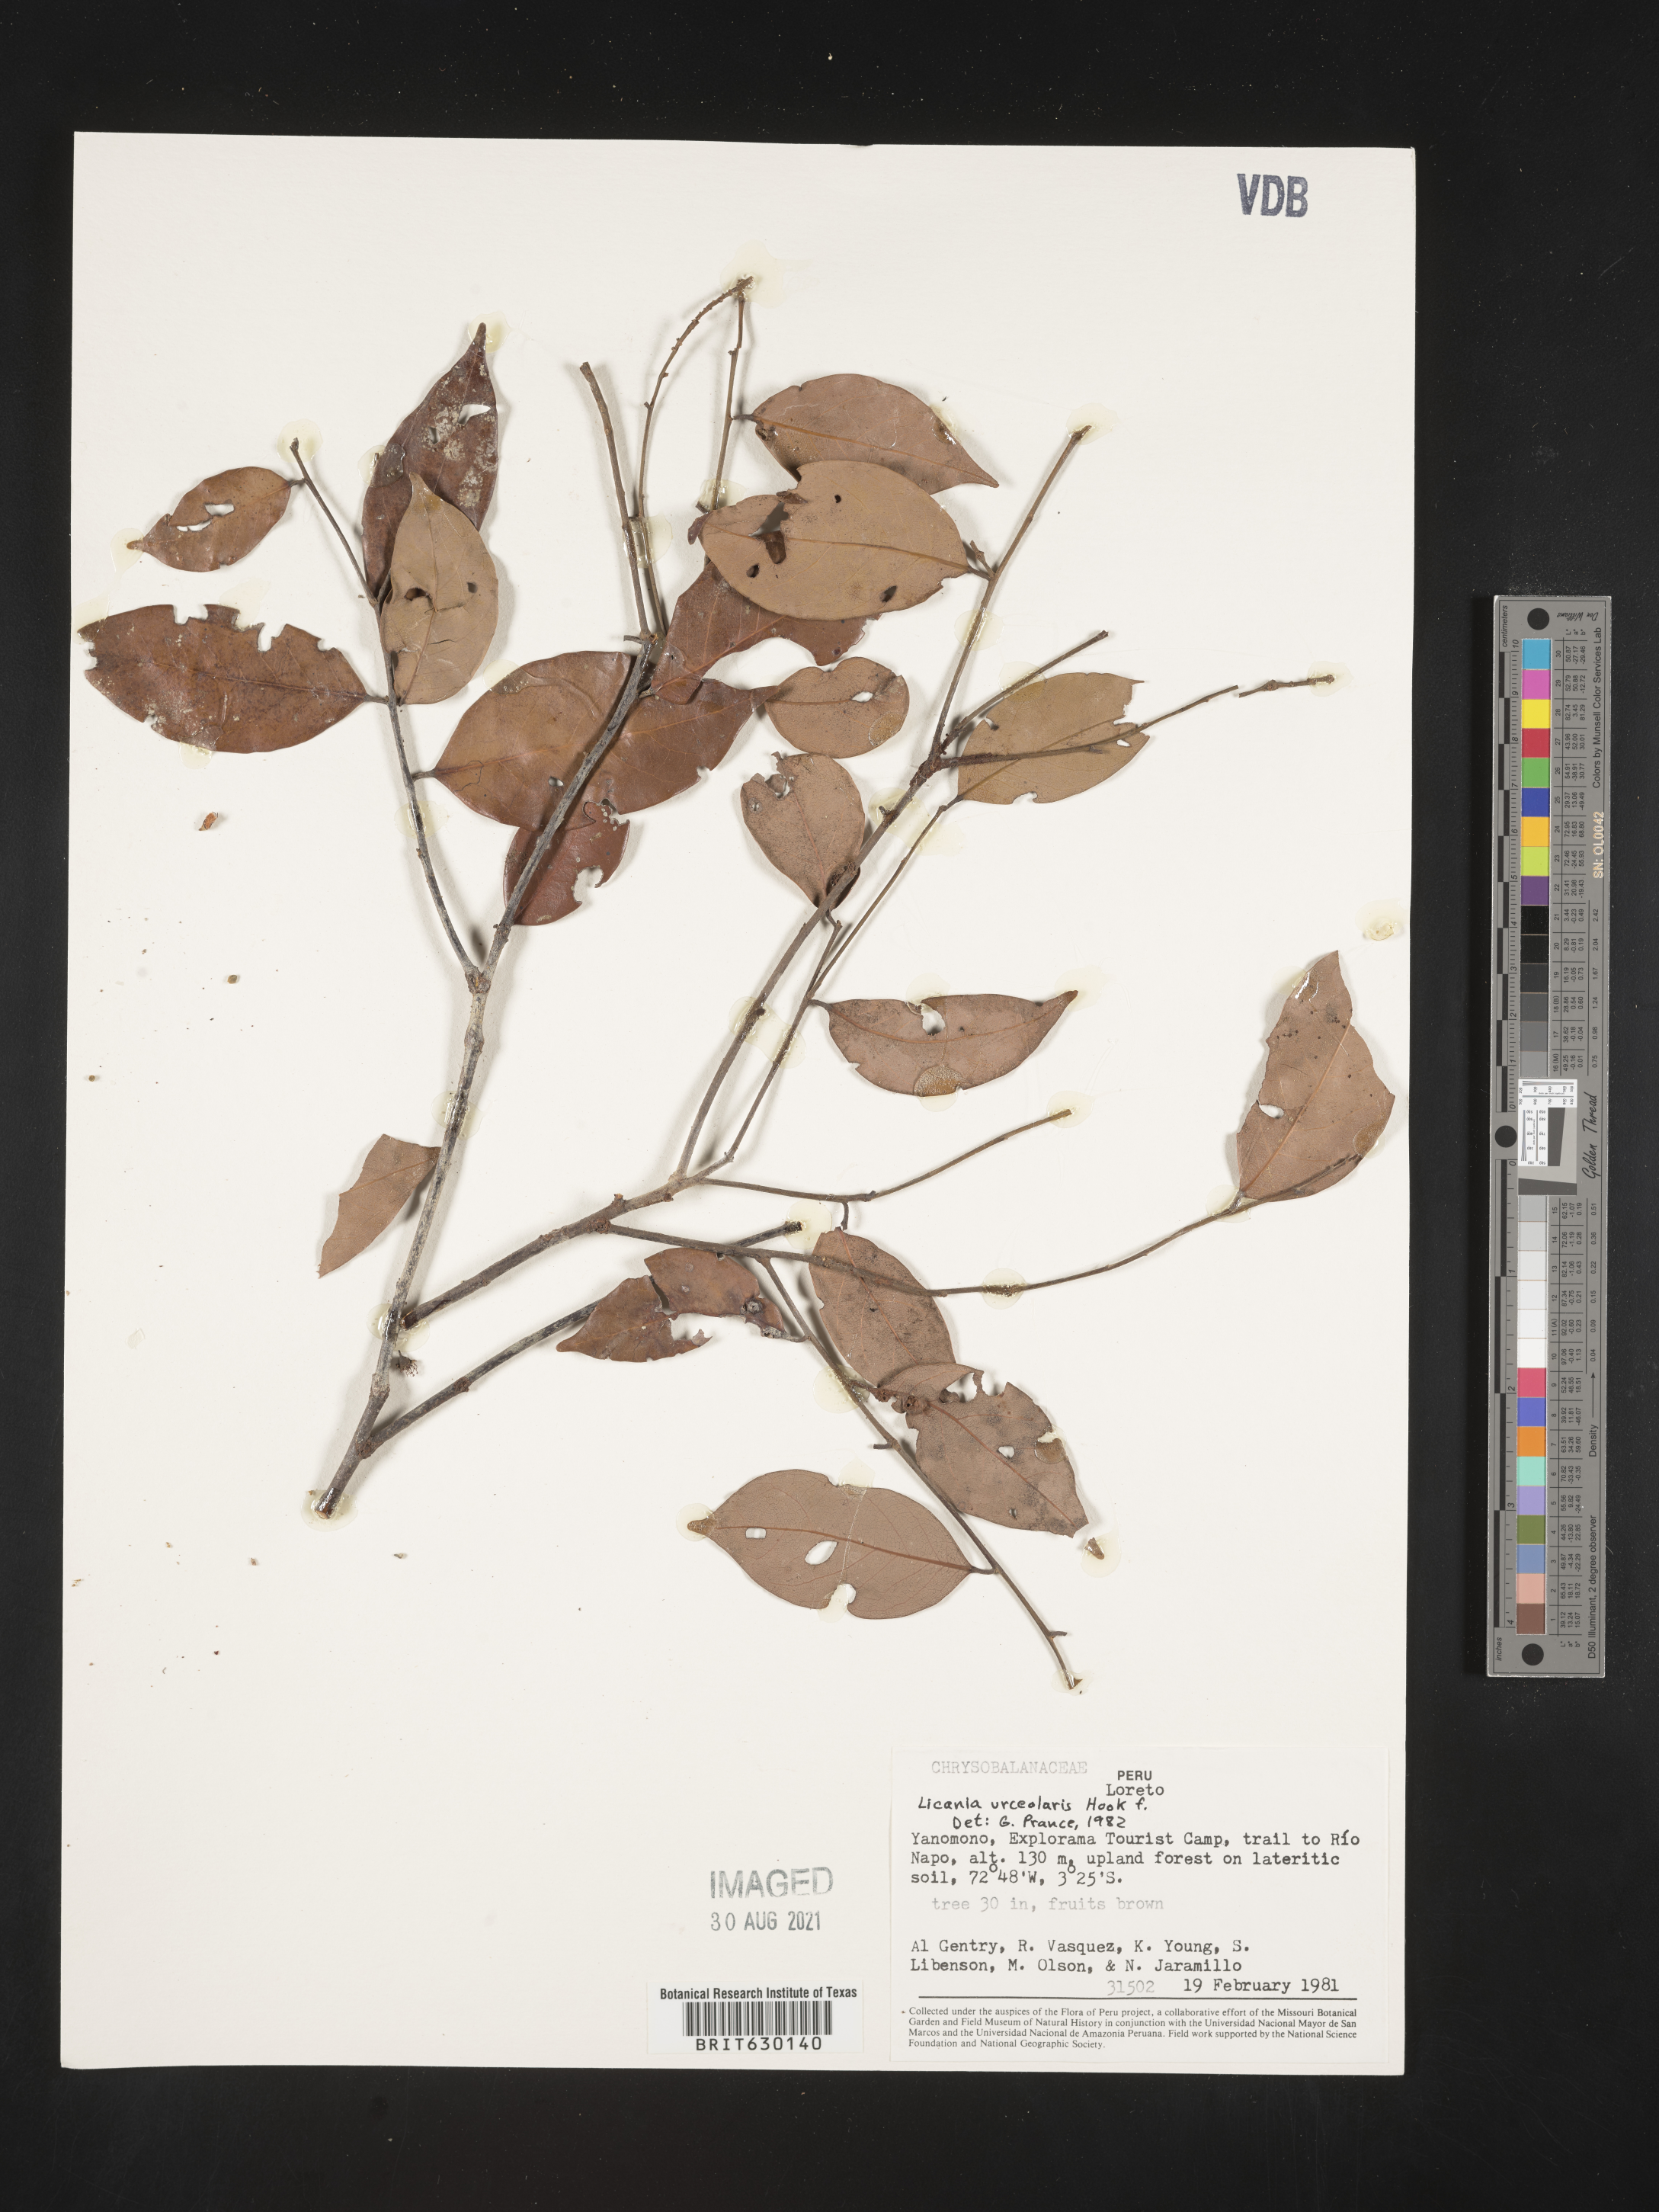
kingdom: Plantae
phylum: Tracheophyta
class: Magnoliopsida
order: Malpighiales
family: Chrysobalanaceae
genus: Licania
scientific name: Licania urceolaris
